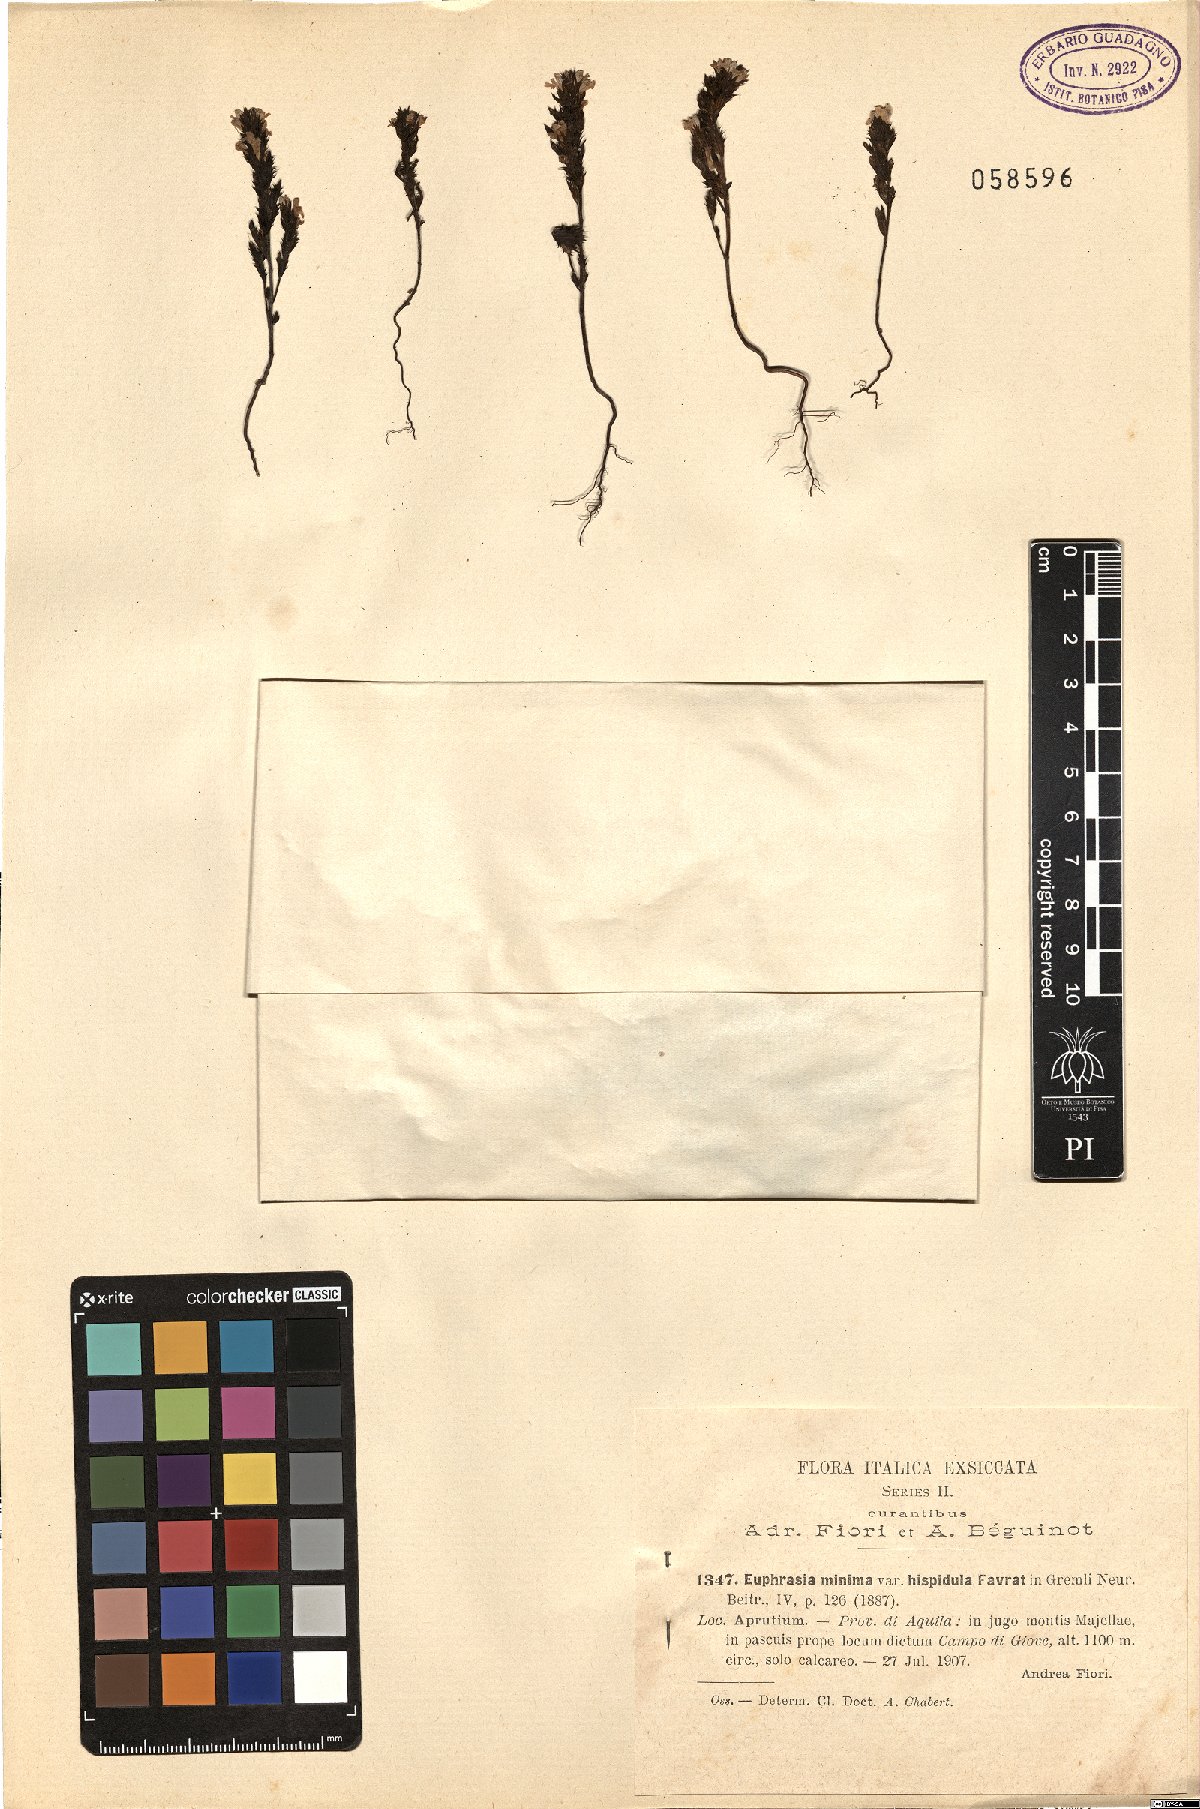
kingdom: Plantae
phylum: Tracheophyta
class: Magnoliopsida
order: Lamiales
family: Orobanchaceae
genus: Euphrasia
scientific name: Euphrasia minima
